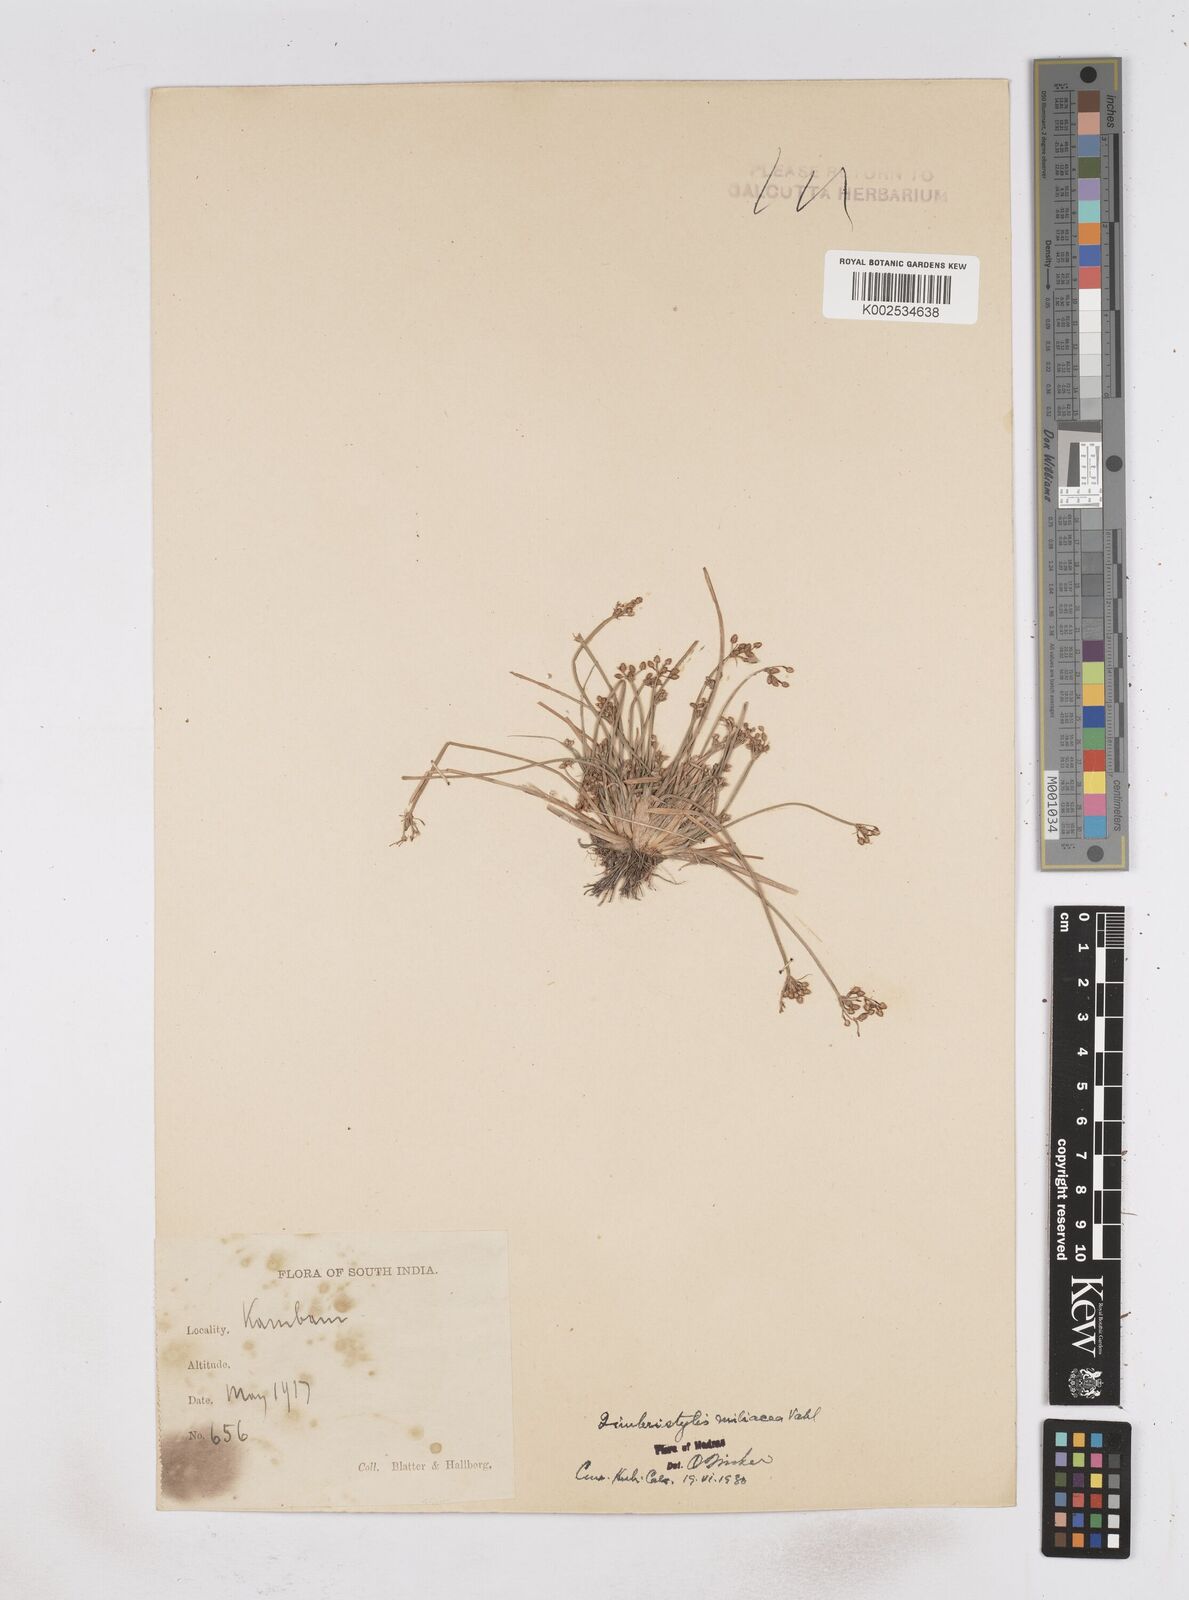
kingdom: Plantae
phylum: Tracheophyta
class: Liliopsida
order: Poales
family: Cyperaceae
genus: Fimbristylis
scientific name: Fimbristylis littoralis
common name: Fimbry
